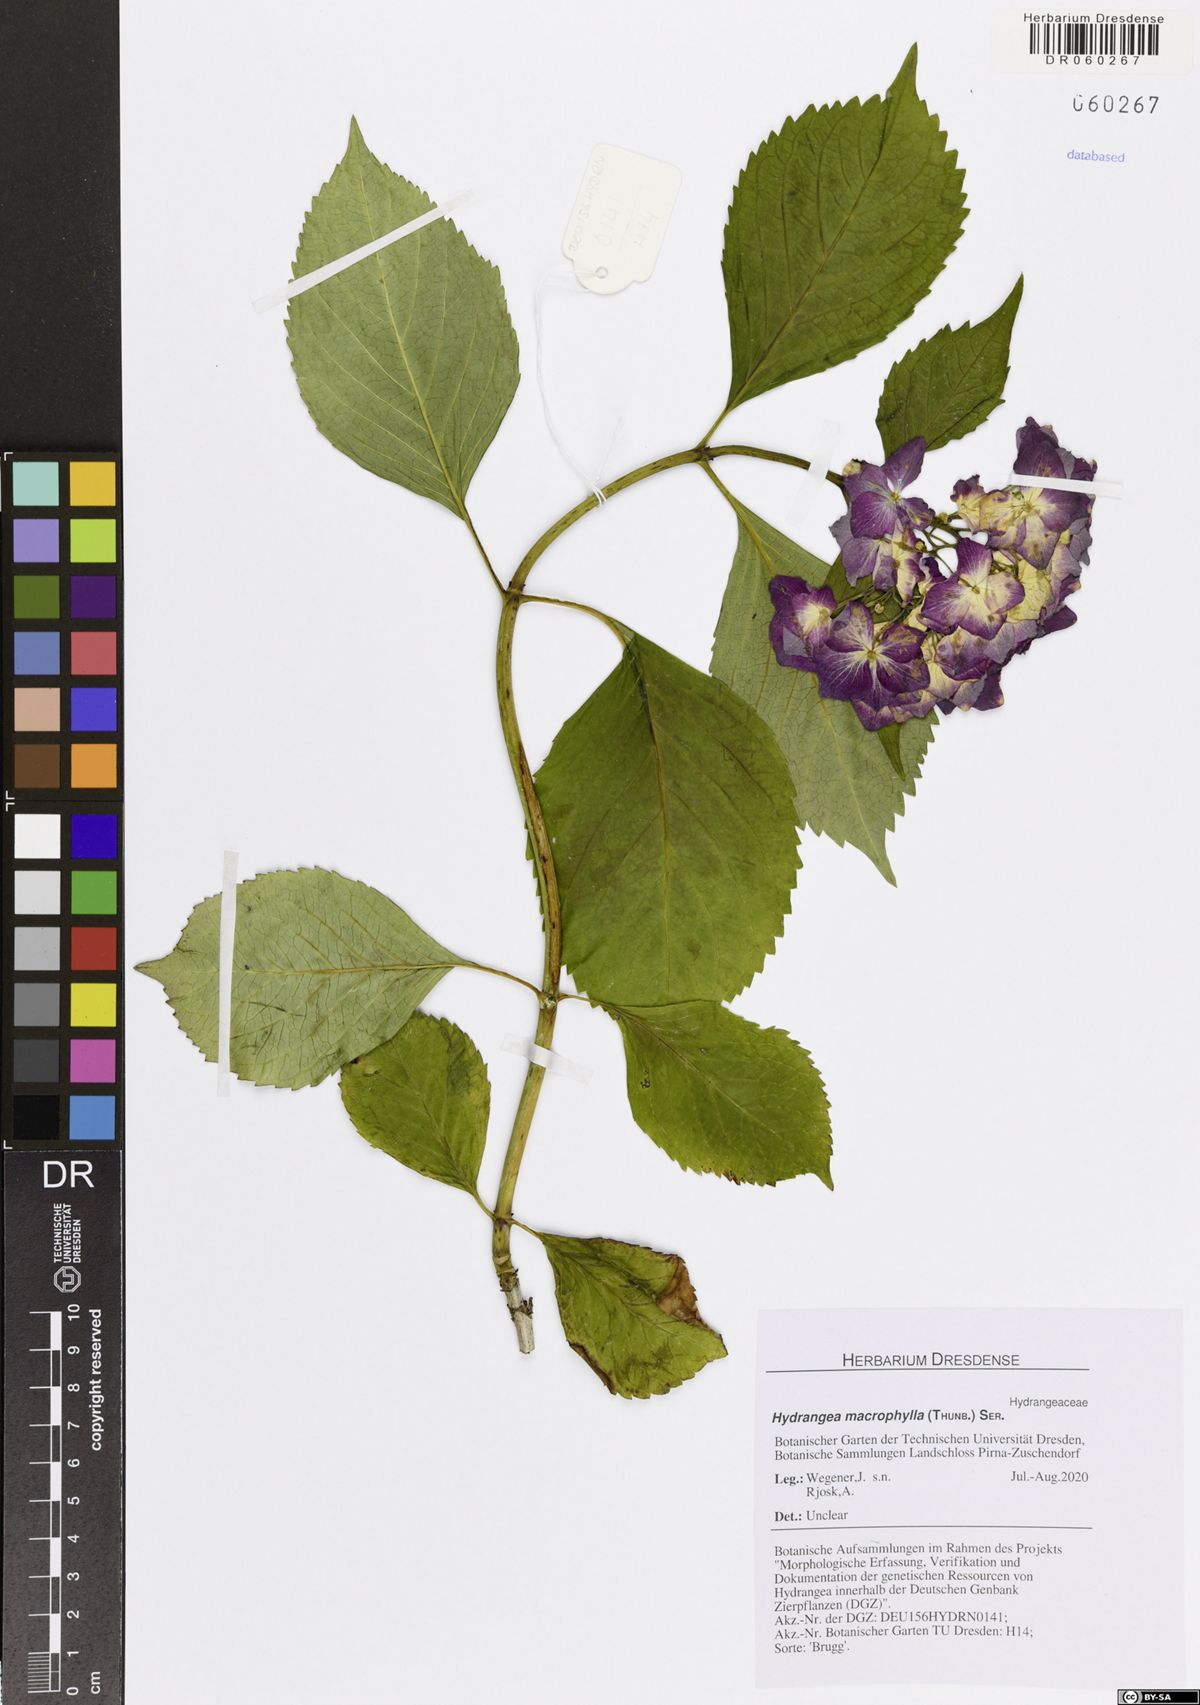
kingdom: Plantae
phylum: Tracheophyta
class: Magnoliopsida
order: Cornales
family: Hydrangeaceae
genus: Hydrangea
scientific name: Hydrangea macrophylla
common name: Hydrangea
